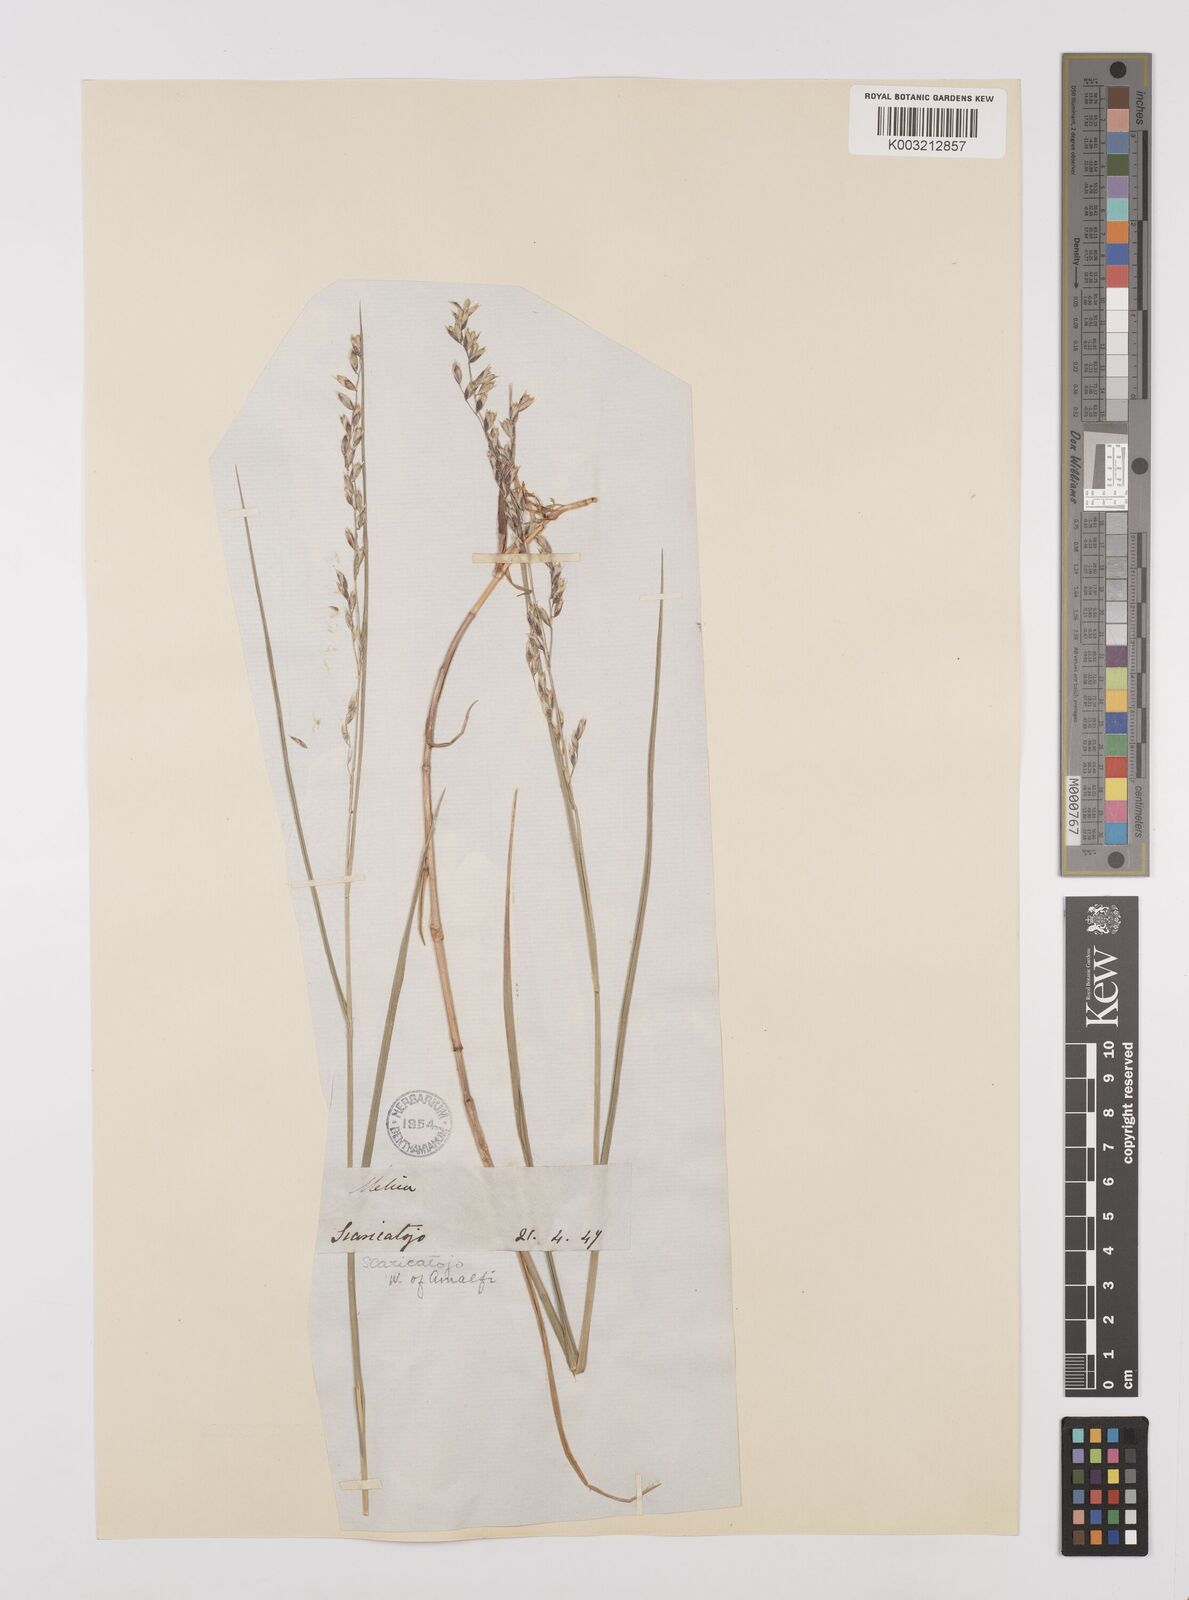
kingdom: Plantae
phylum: Tracheophyta
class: Liliopsida
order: Poales
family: Poaceae
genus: Melica
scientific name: Melica minuta
